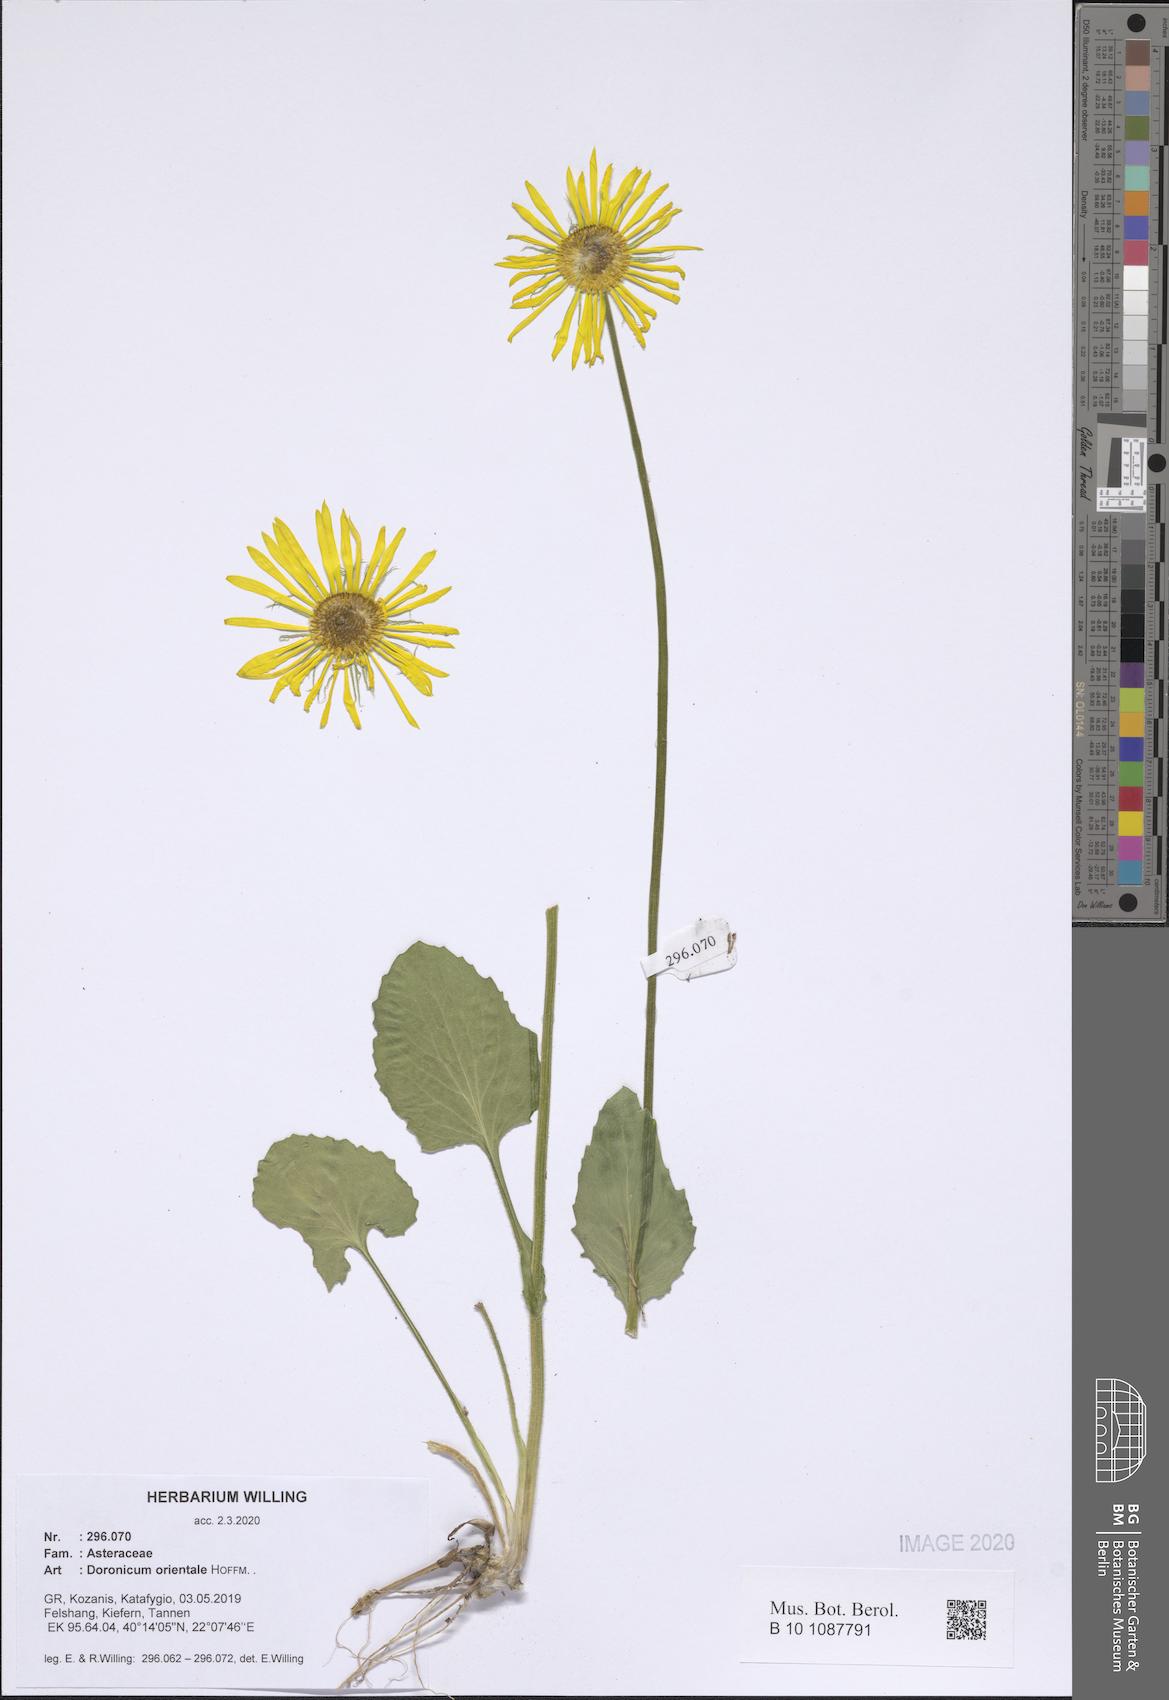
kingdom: Plantae
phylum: Tracheophyta
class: Magnoliopsida
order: Asterales
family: Asteraceae
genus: Doronicum
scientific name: Doronicum orientale
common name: Oriental leopard's-bane
